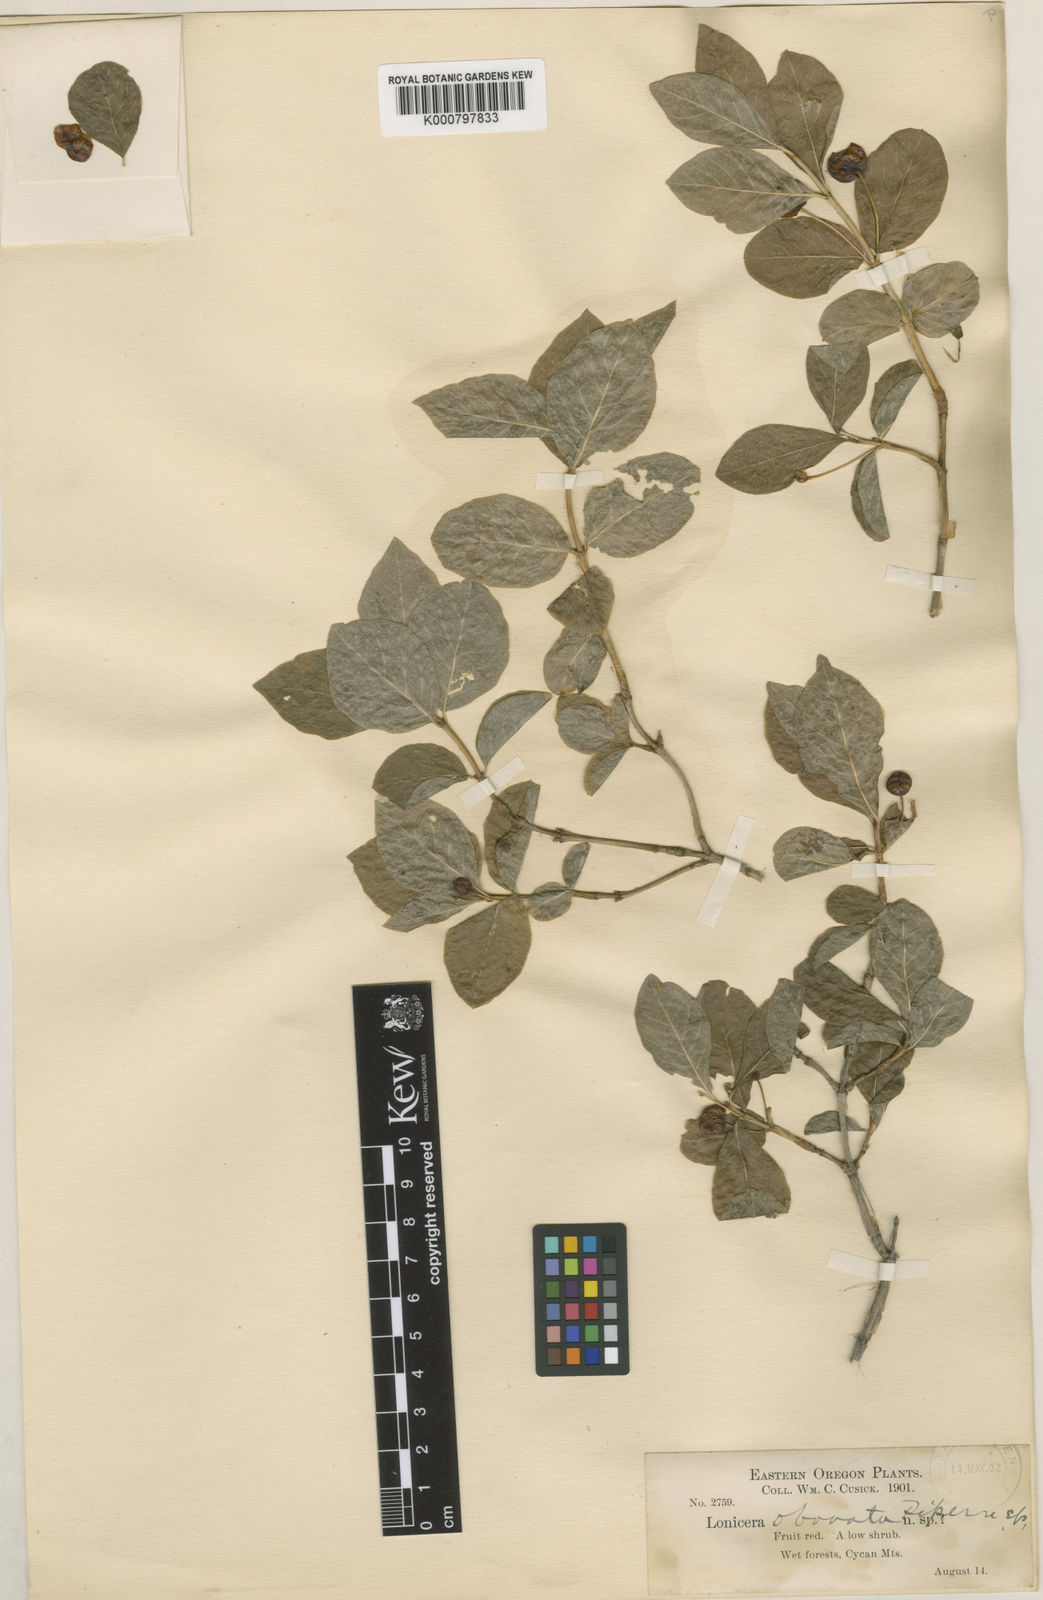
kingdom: Plantae
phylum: Tracheophyta
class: Magnoliopsida
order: Dipsacales
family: Caprifoliaceae
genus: Lonicera
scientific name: Lonicera obovata
